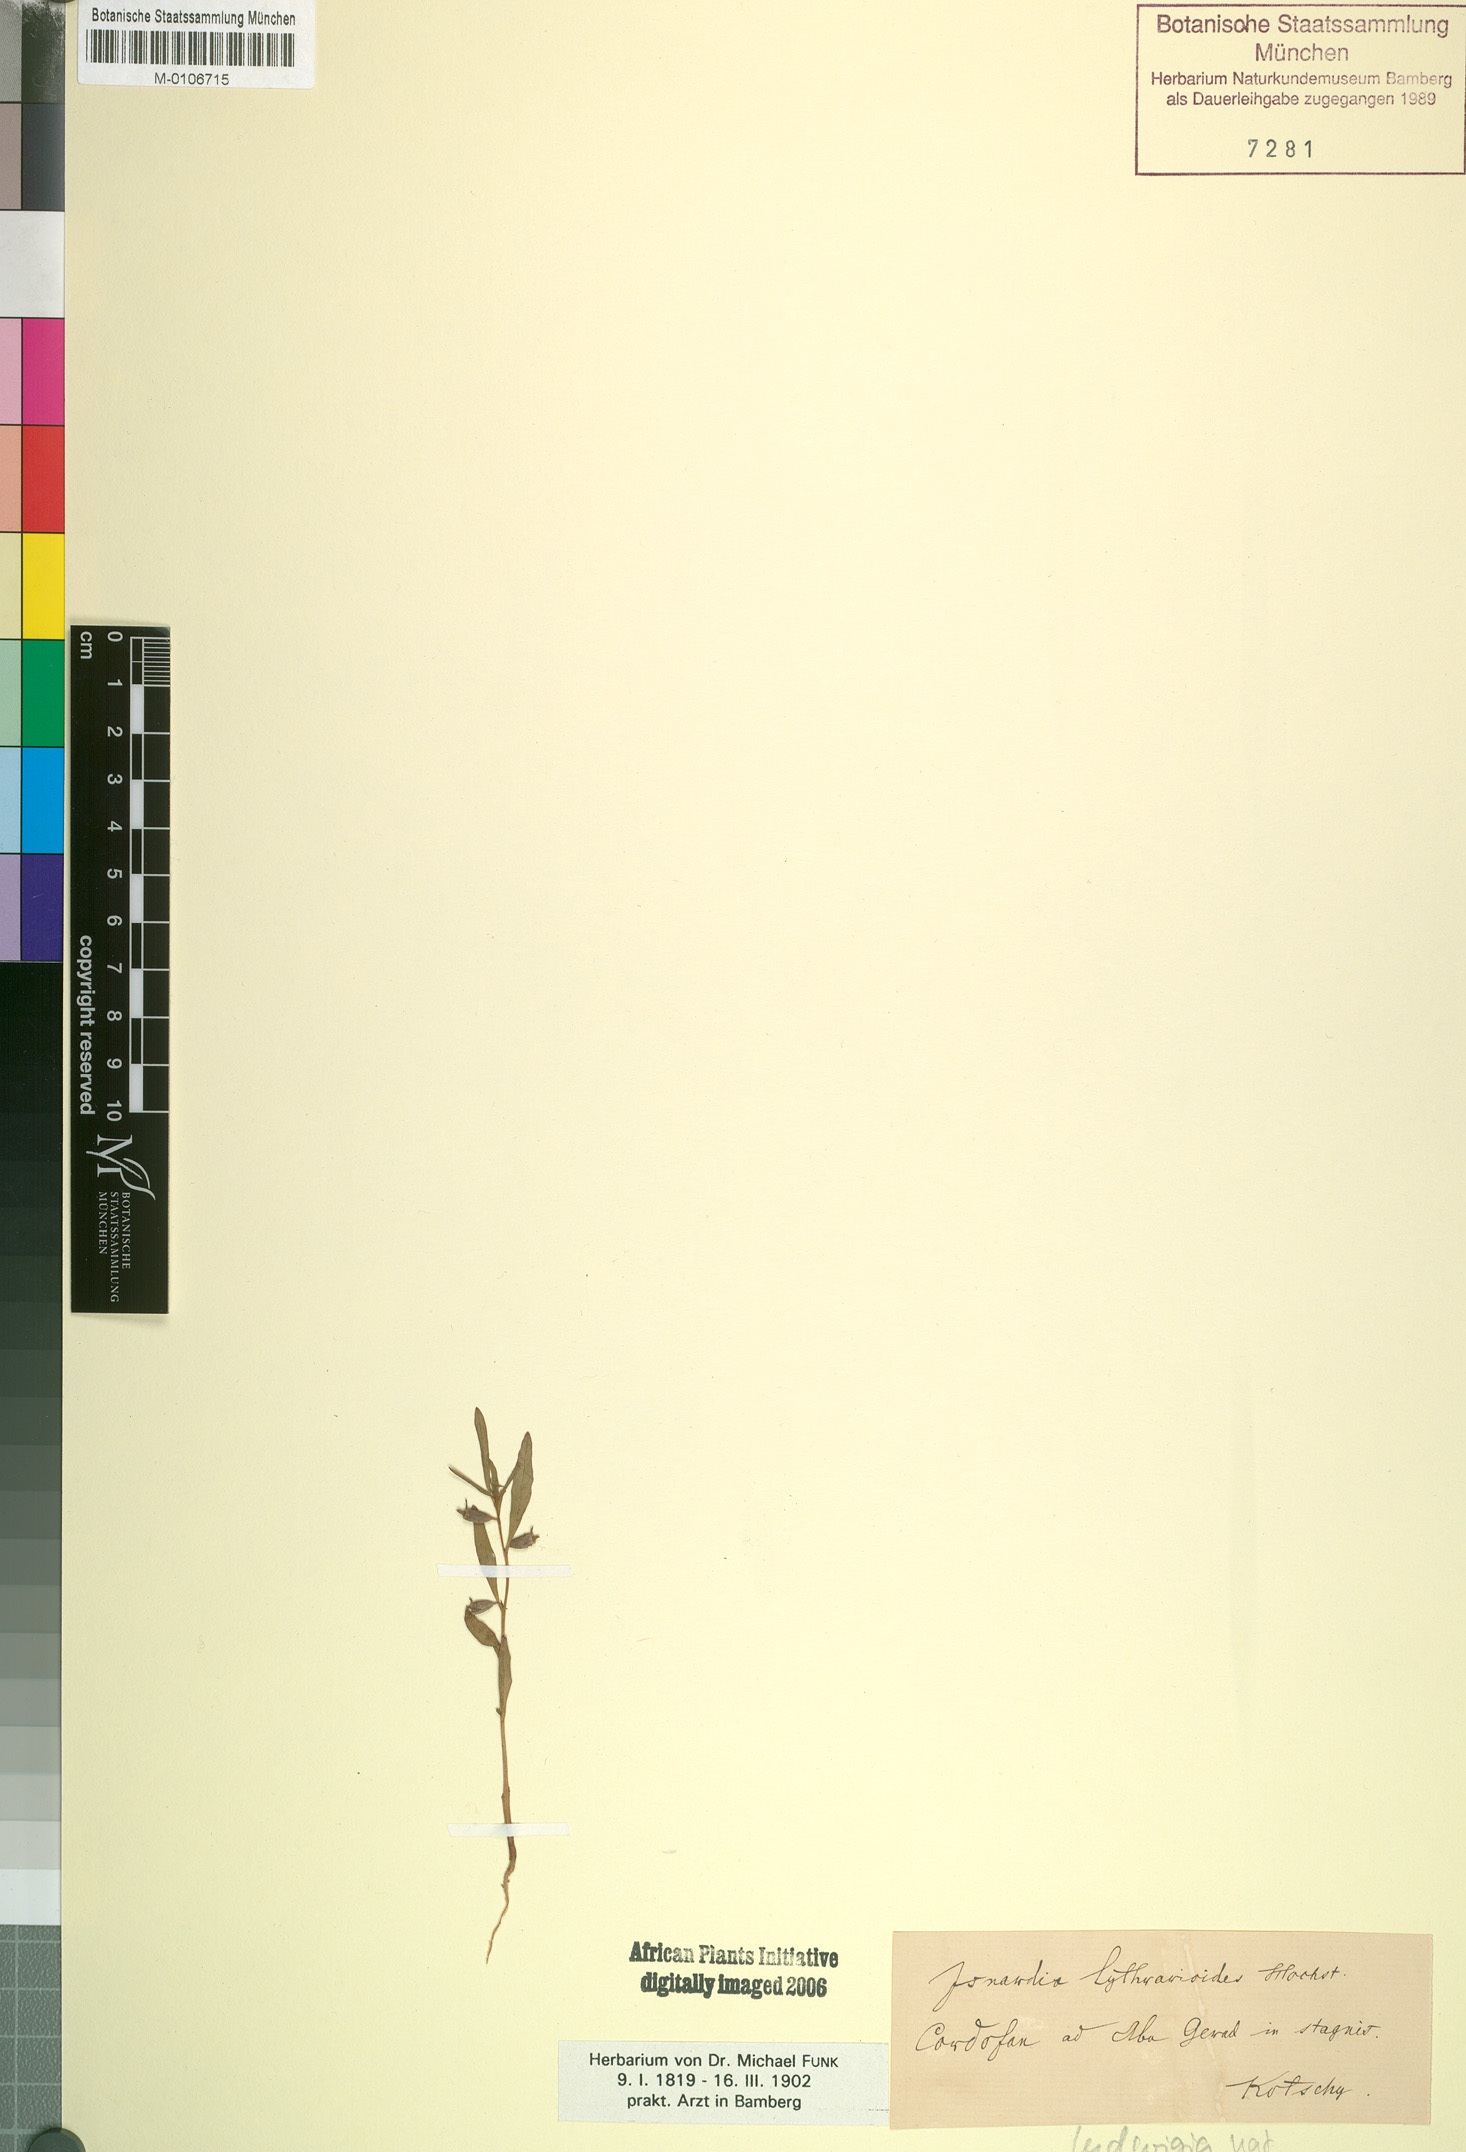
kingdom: Plantae
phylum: Tracheophyta
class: Magnoliopsida
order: Myrtales
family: Onagraceae
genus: Ludwigia
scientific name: Ludwigia repens
